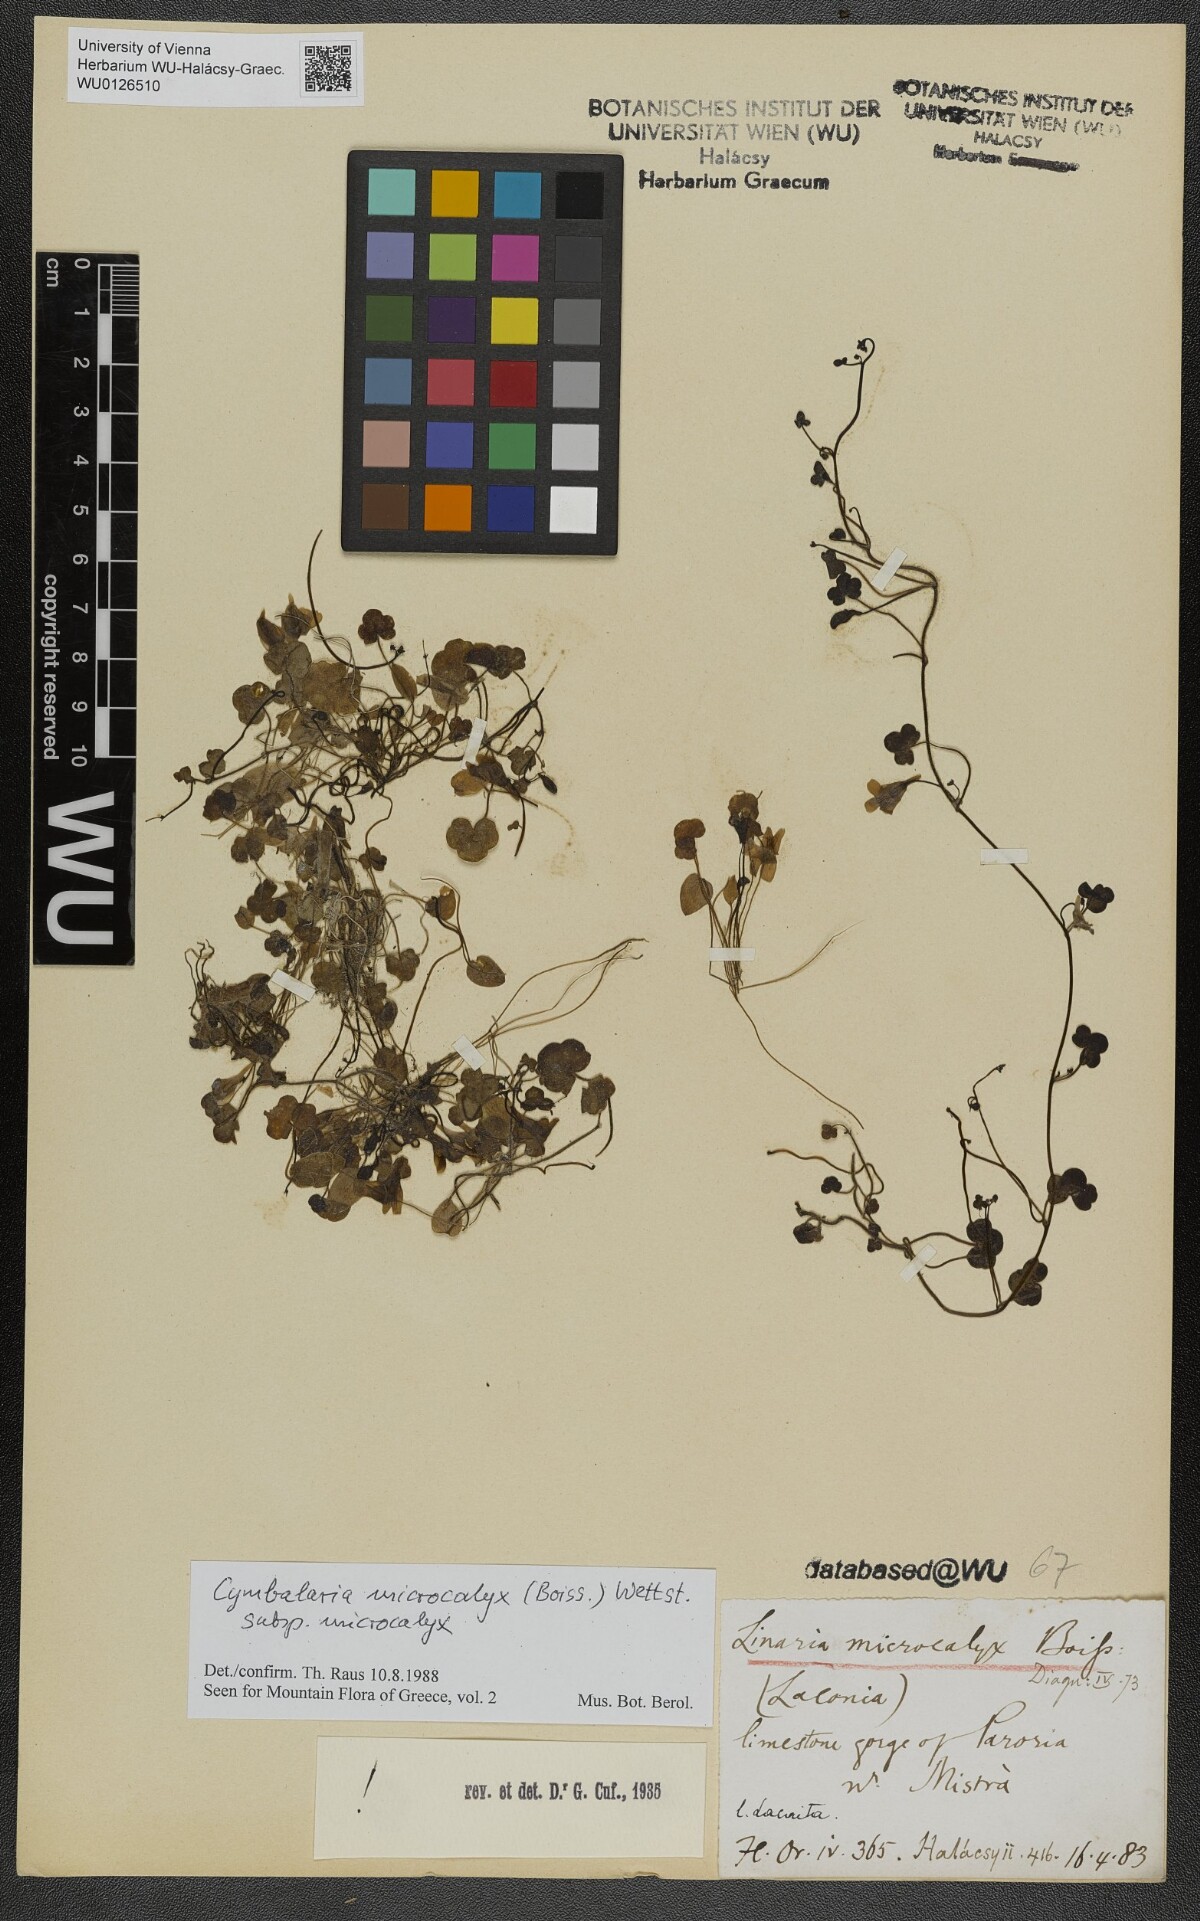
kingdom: Plantae
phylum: Tracheophyta
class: Magnoliopsida
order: Lamiales
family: Plantaginaceae
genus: Cymbalaria
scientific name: Cymbalaria microcalyx
